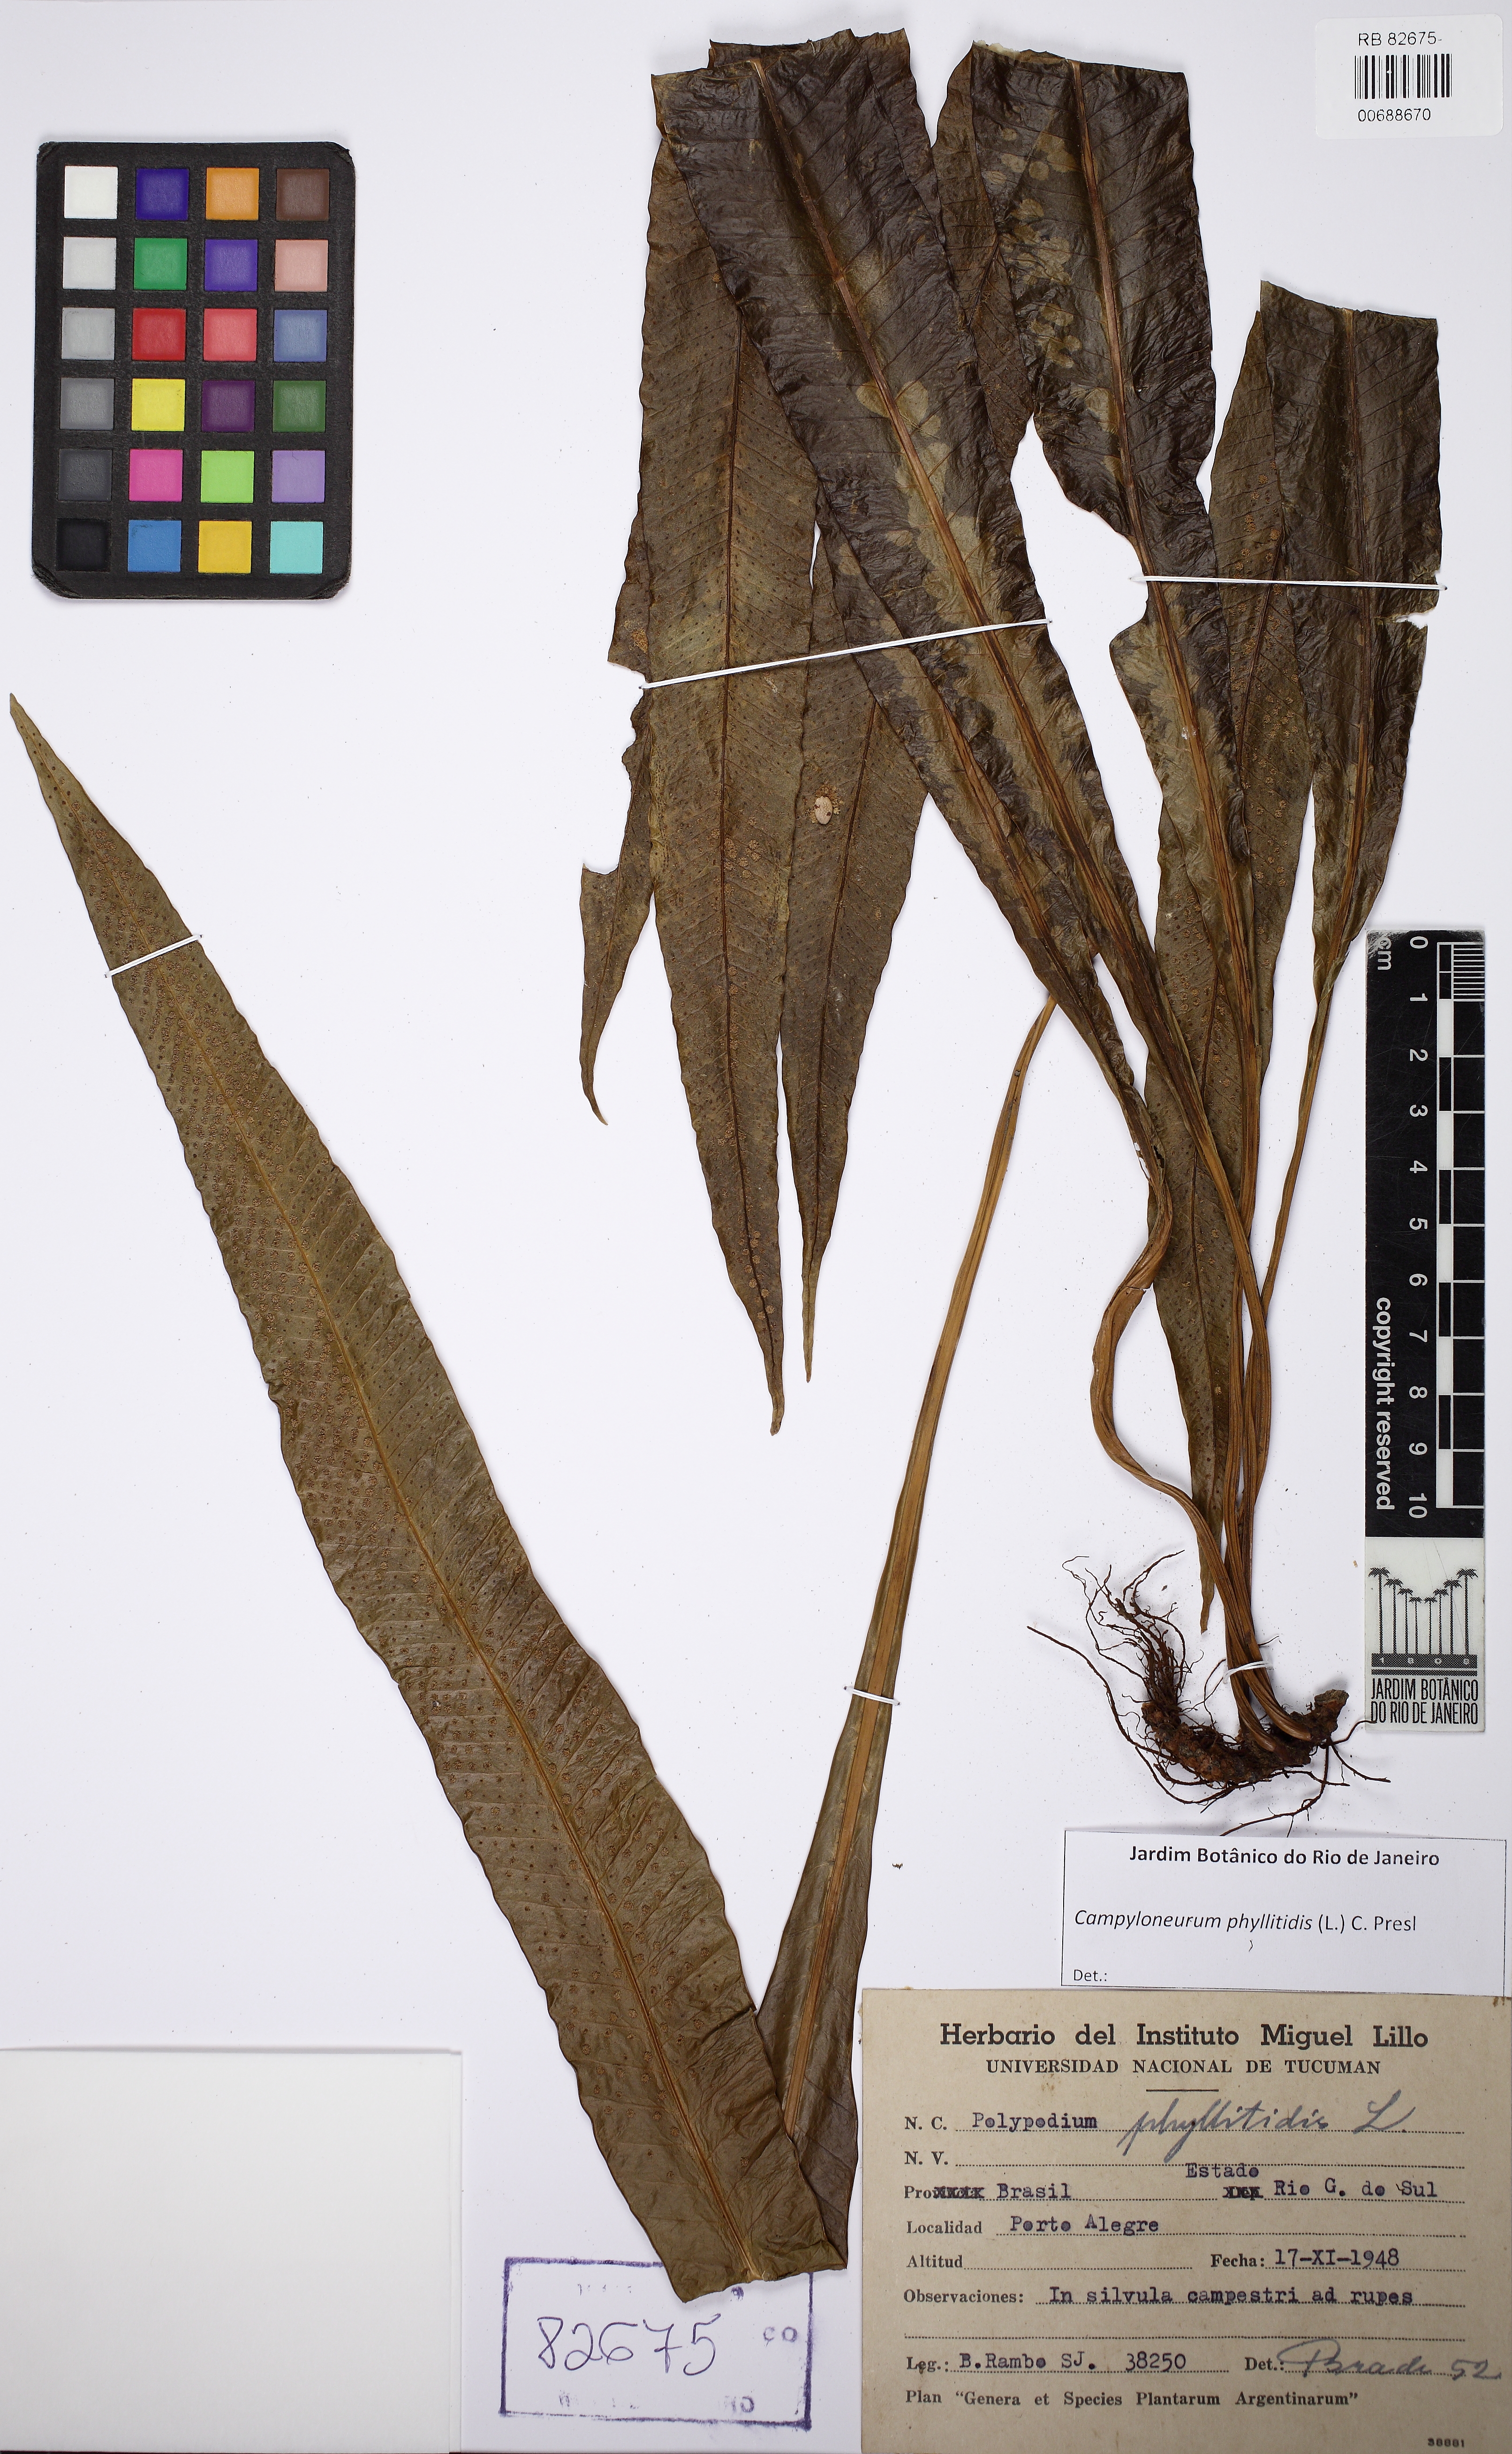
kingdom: Plantae
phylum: Tracheophyta
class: Polypodiopsida
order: Polypodiales
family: Polypodiaceae
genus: Campyloneurum
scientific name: Campyloneurum phyllitidis
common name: Cow-tongue fern
